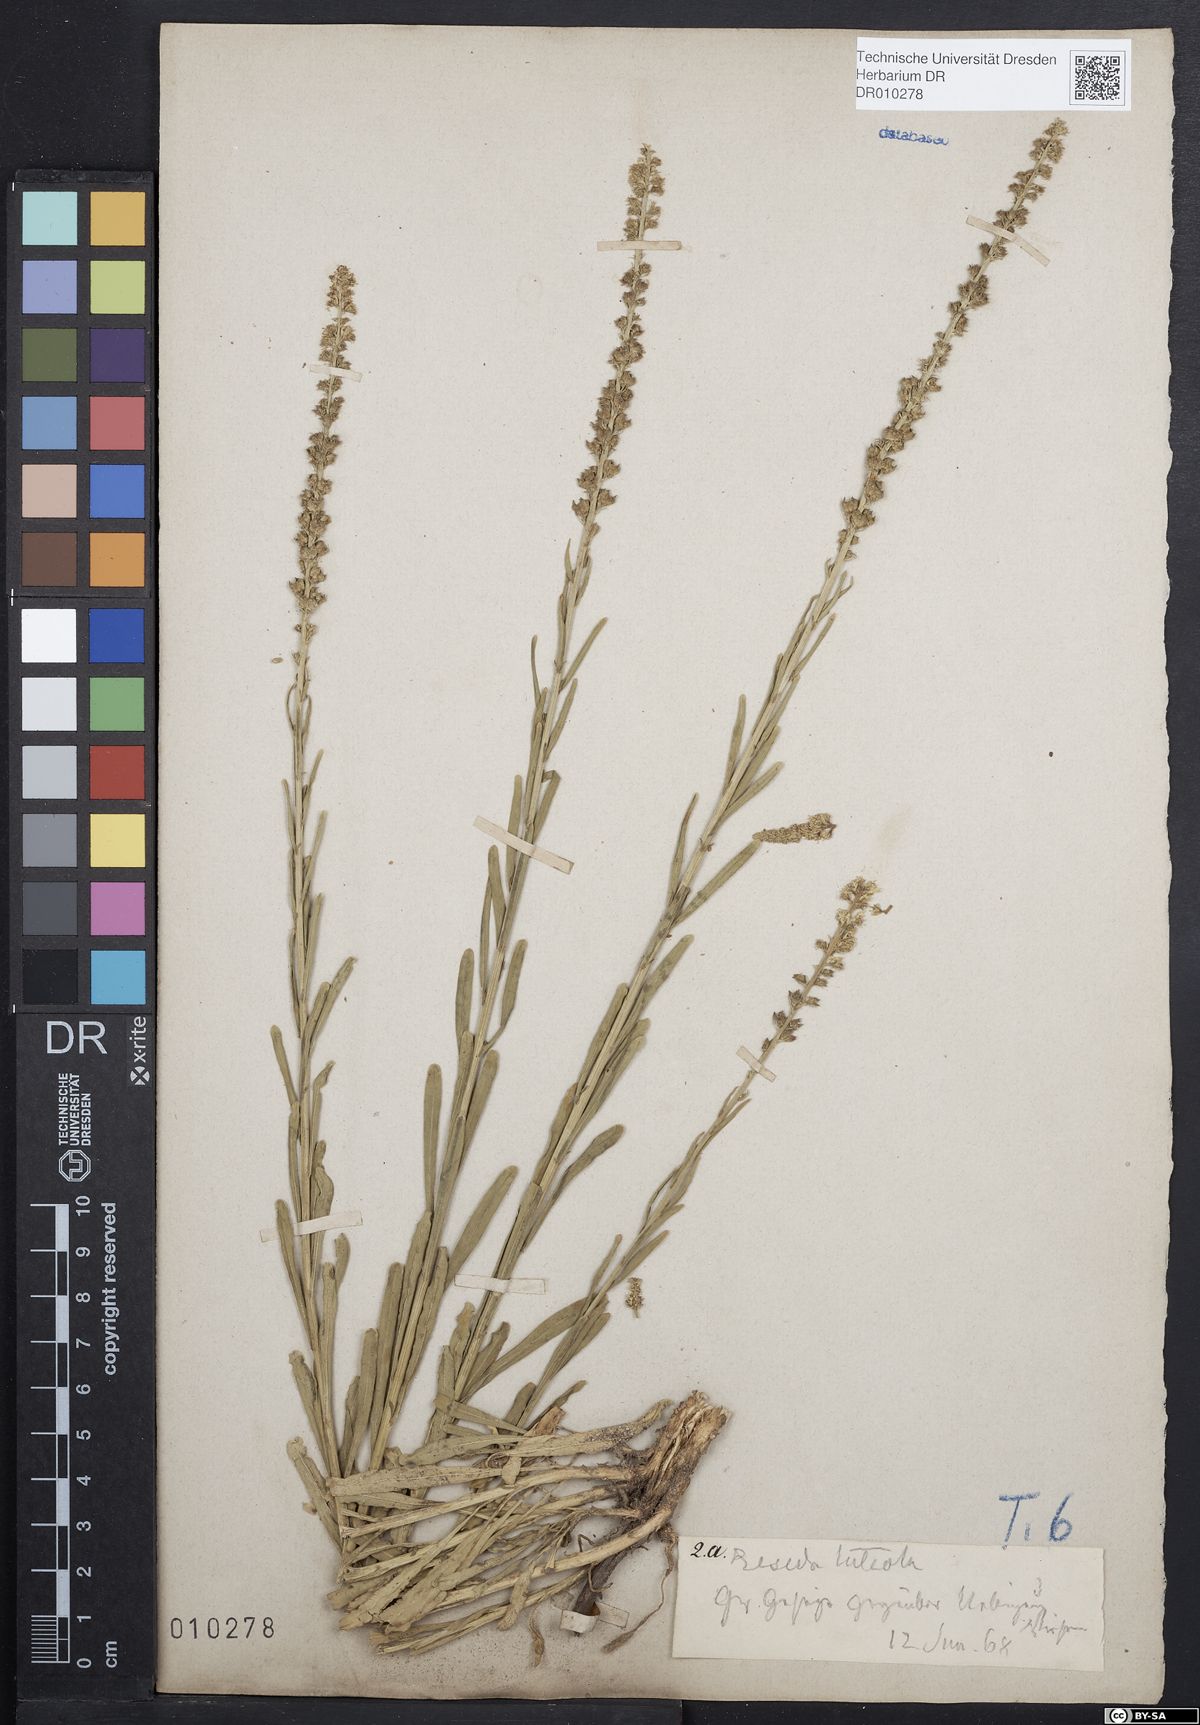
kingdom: Plantae
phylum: Tracheophyta
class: Magnoliopsida
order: Brassicales
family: Resedaceae
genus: Reseda
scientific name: Reseda luteola
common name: Weld
